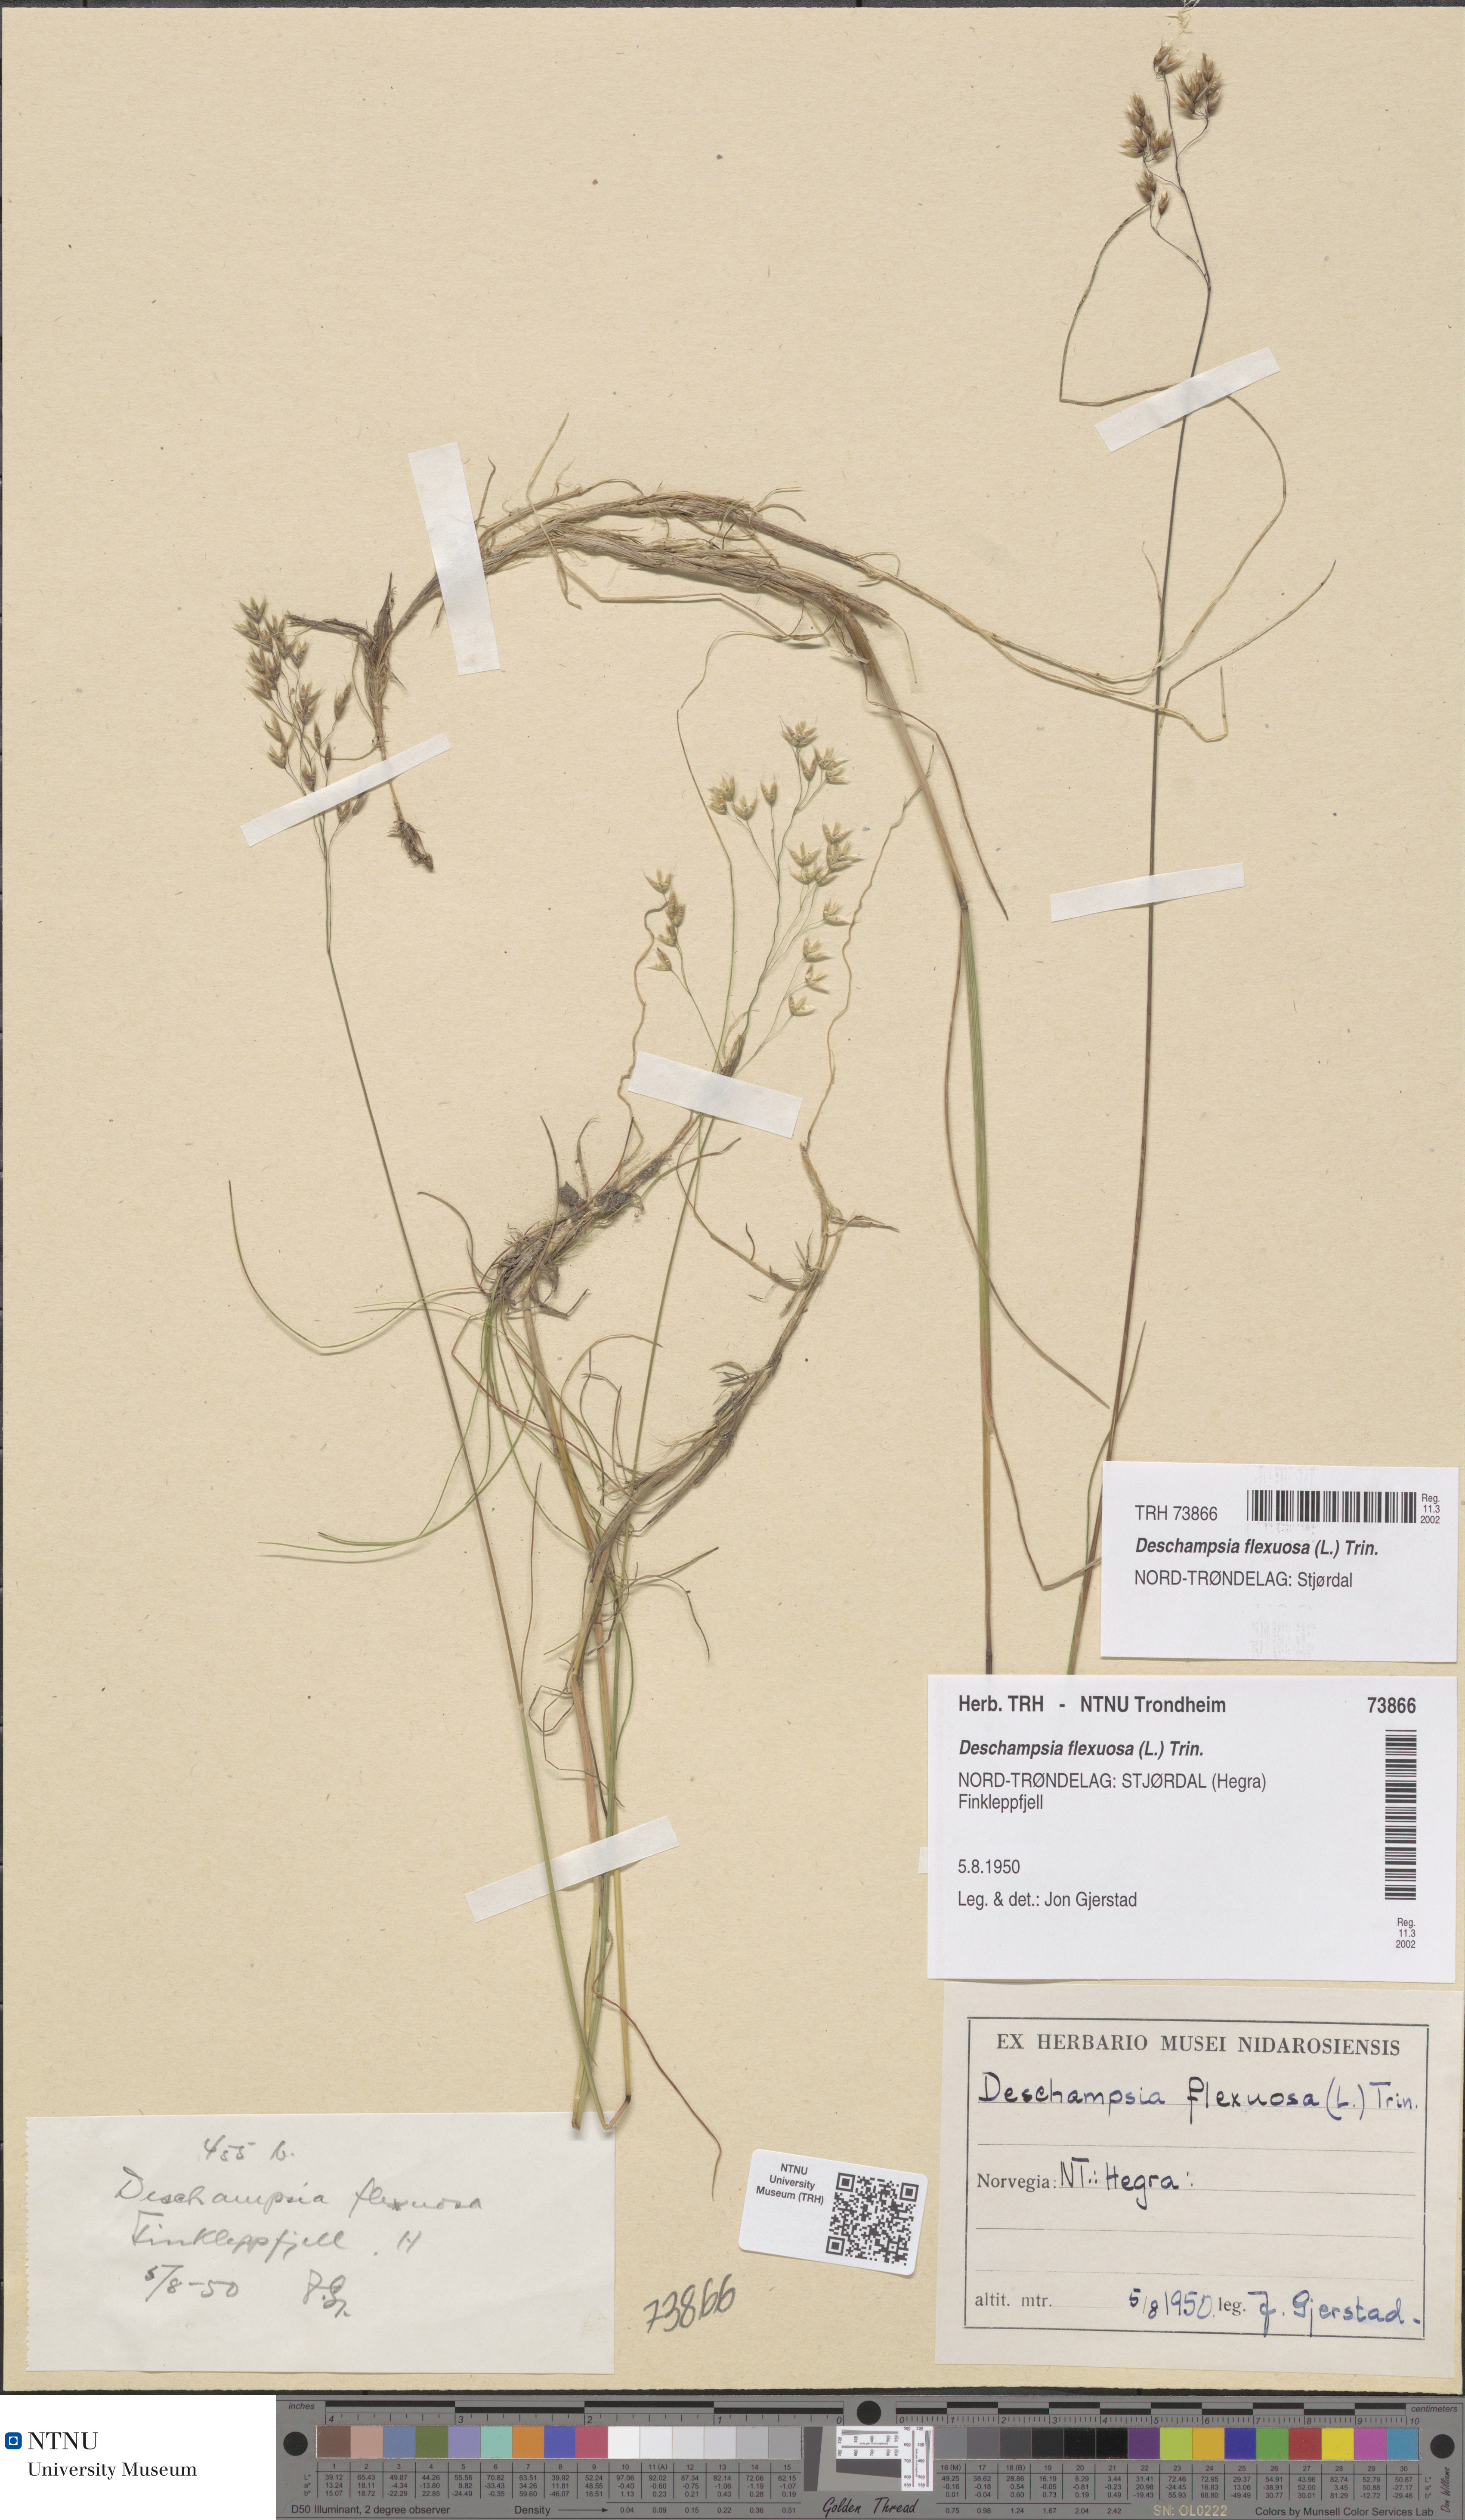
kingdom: Plantae
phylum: Tracheophyta
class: Liliopsida
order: Poales
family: Poaceae
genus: Avenella
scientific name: Avenella flexuosa
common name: Wavy hairgrass
